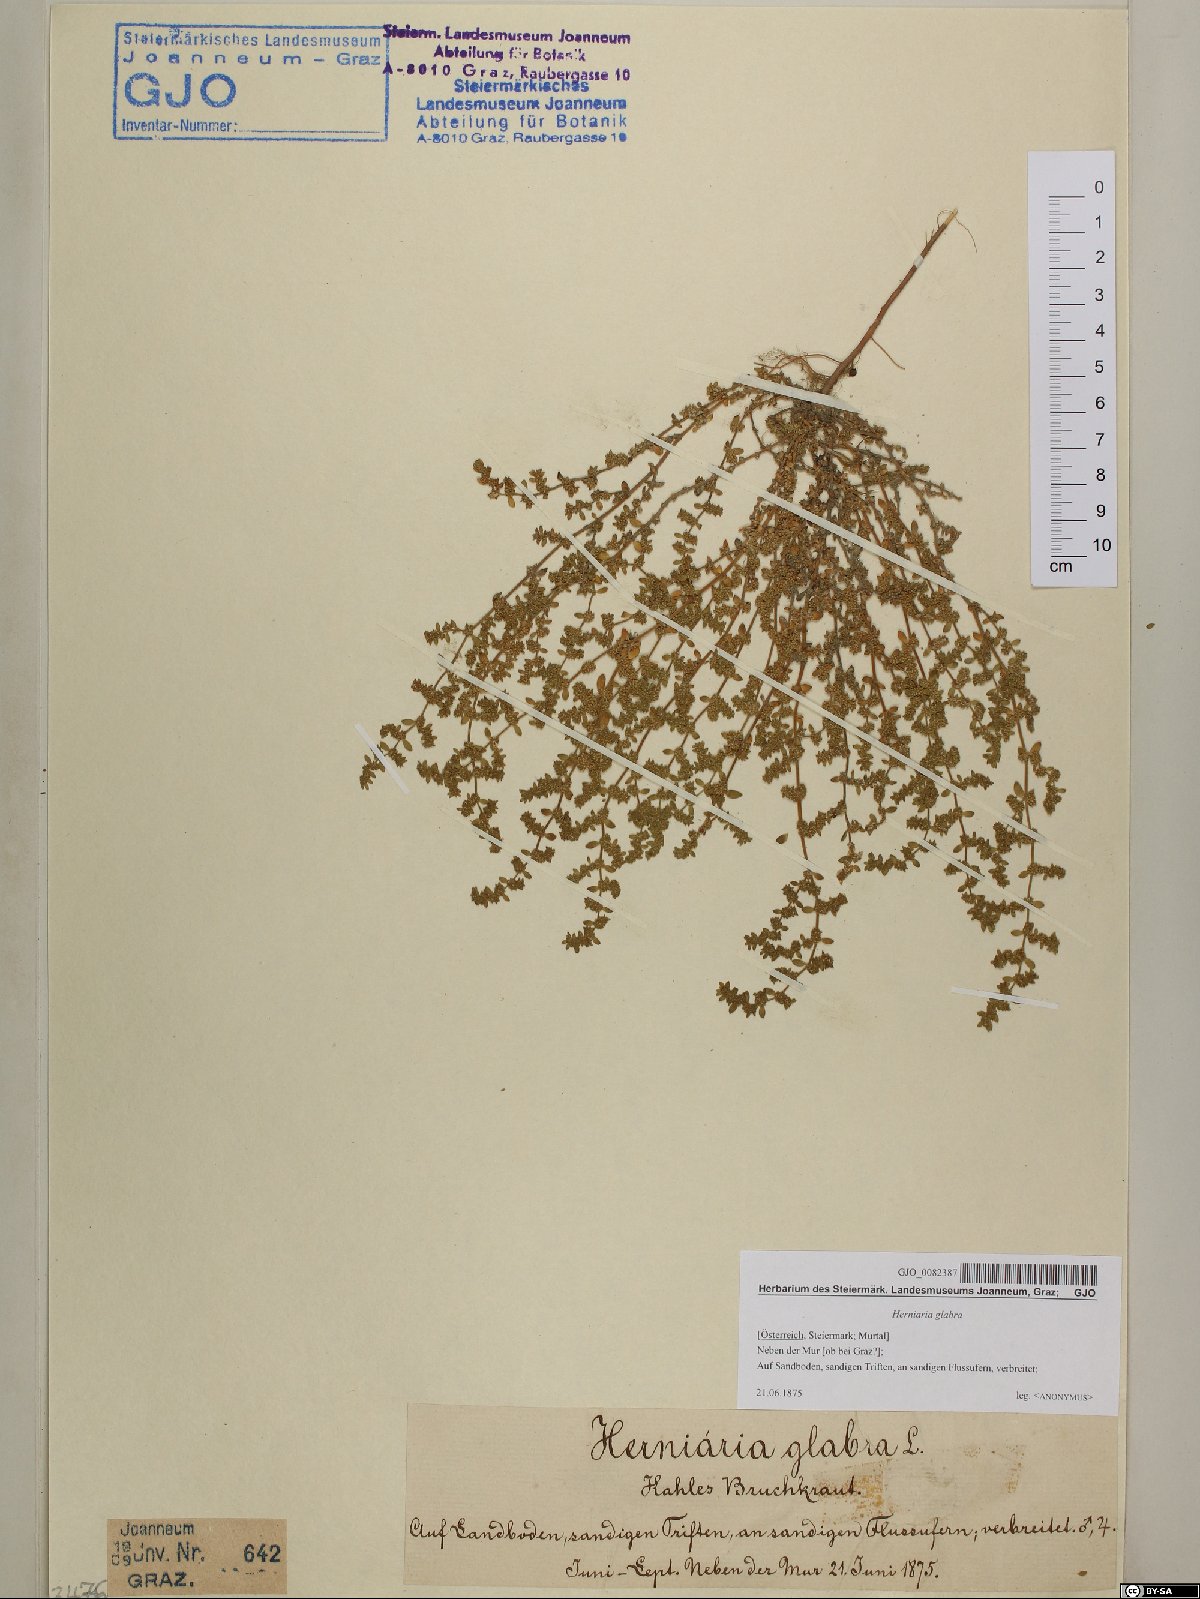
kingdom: Plantae
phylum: Tracheophyta
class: Magnoliopsida
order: Caryophyllales
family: Caryophyllaceae
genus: Herniaria
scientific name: Herniaria glabra
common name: Smooth rupturewort
